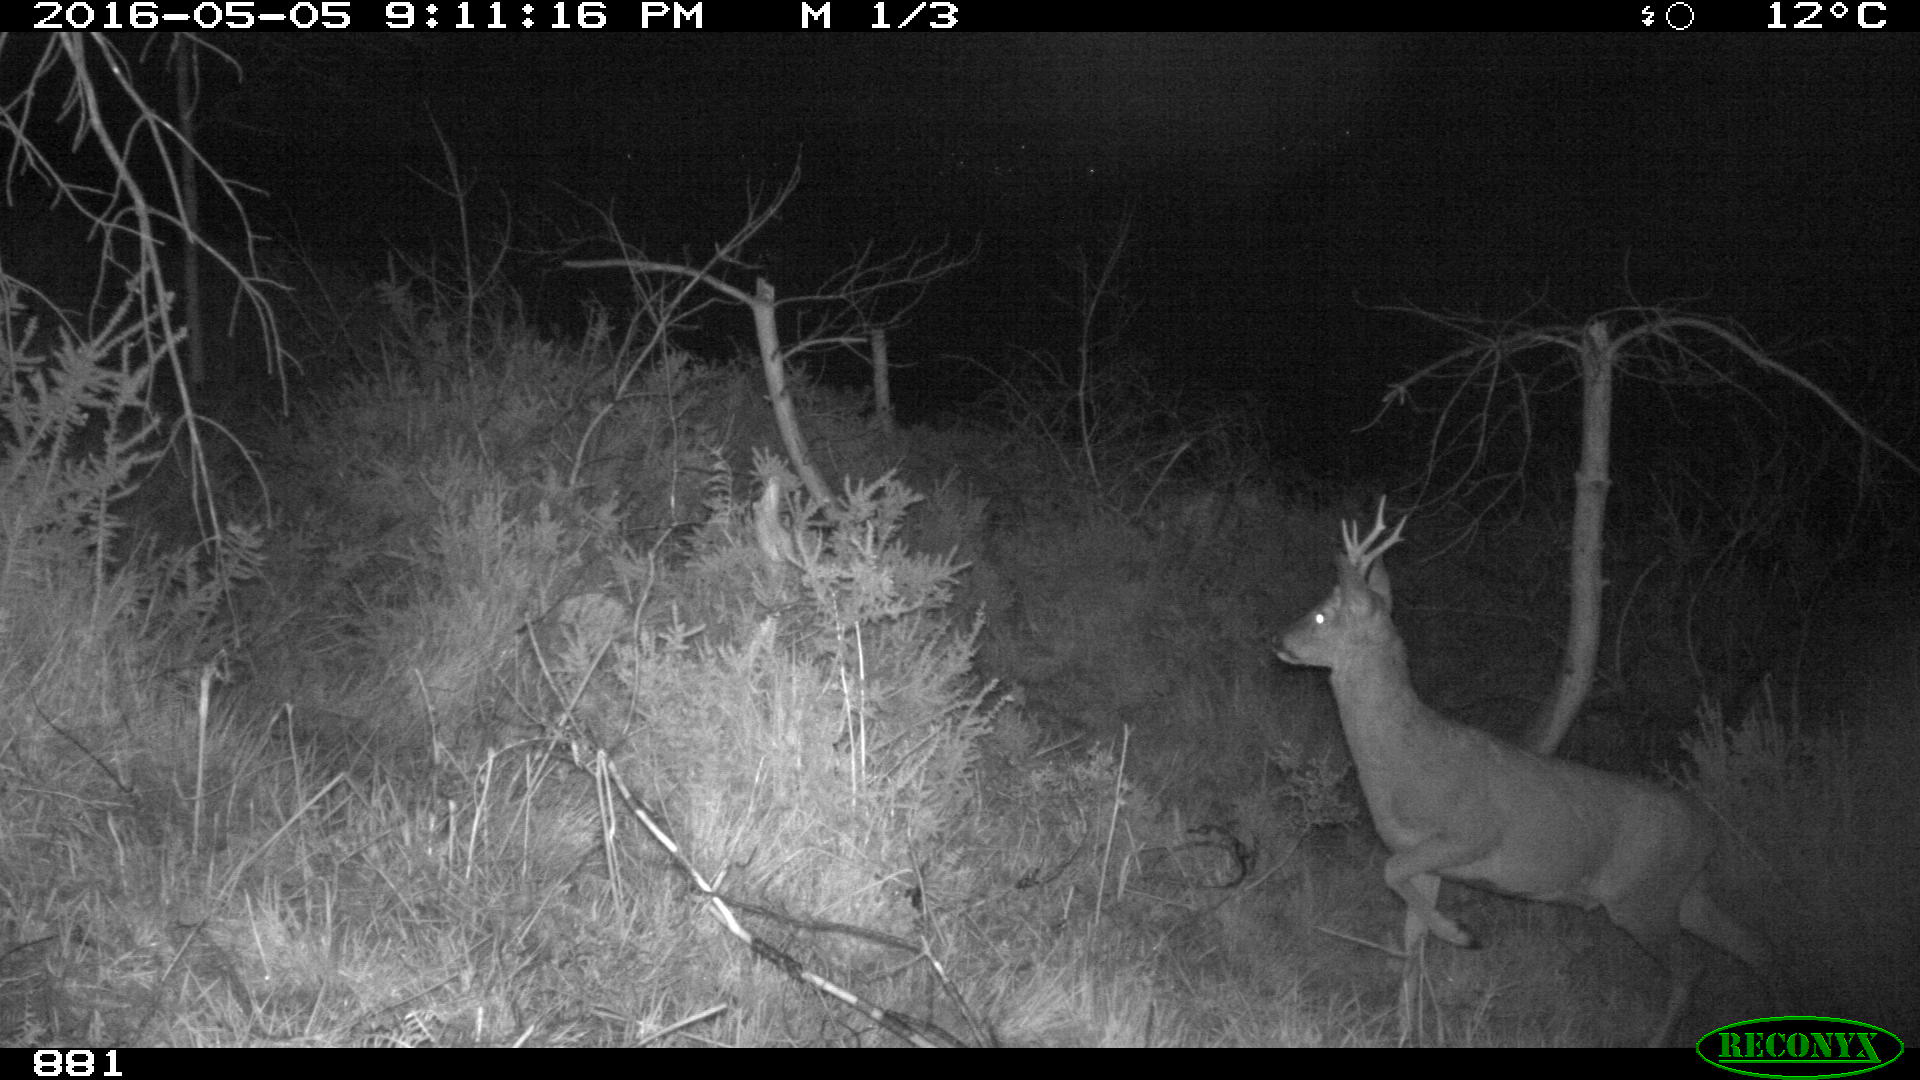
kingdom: Animalia
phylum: Chordata
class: Mammalia
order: Artiodactyla
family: Cervidae
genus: Capreolus
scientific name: Capreolus capreolus
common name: Western roe deer
